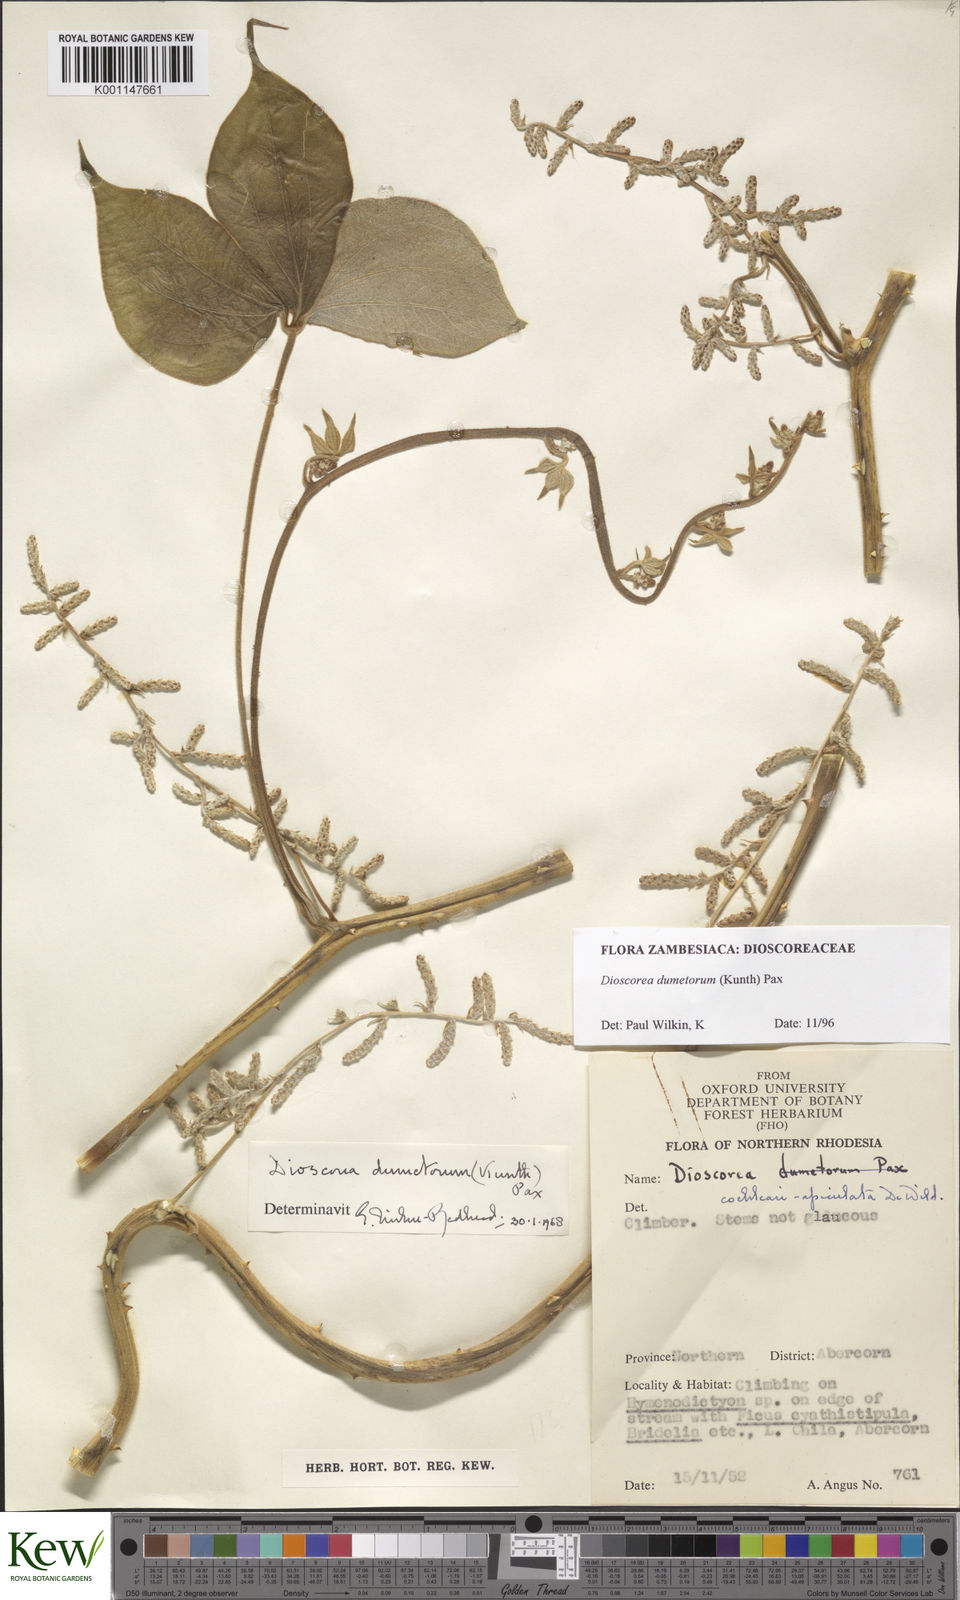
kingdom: Plantae
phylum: Tracheophyta
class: Liliopsida
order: Dioscoreales
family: Dioscoreaceae
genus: Dioscorea
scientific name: Dioscorea dumetorum
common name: African bitter yam
